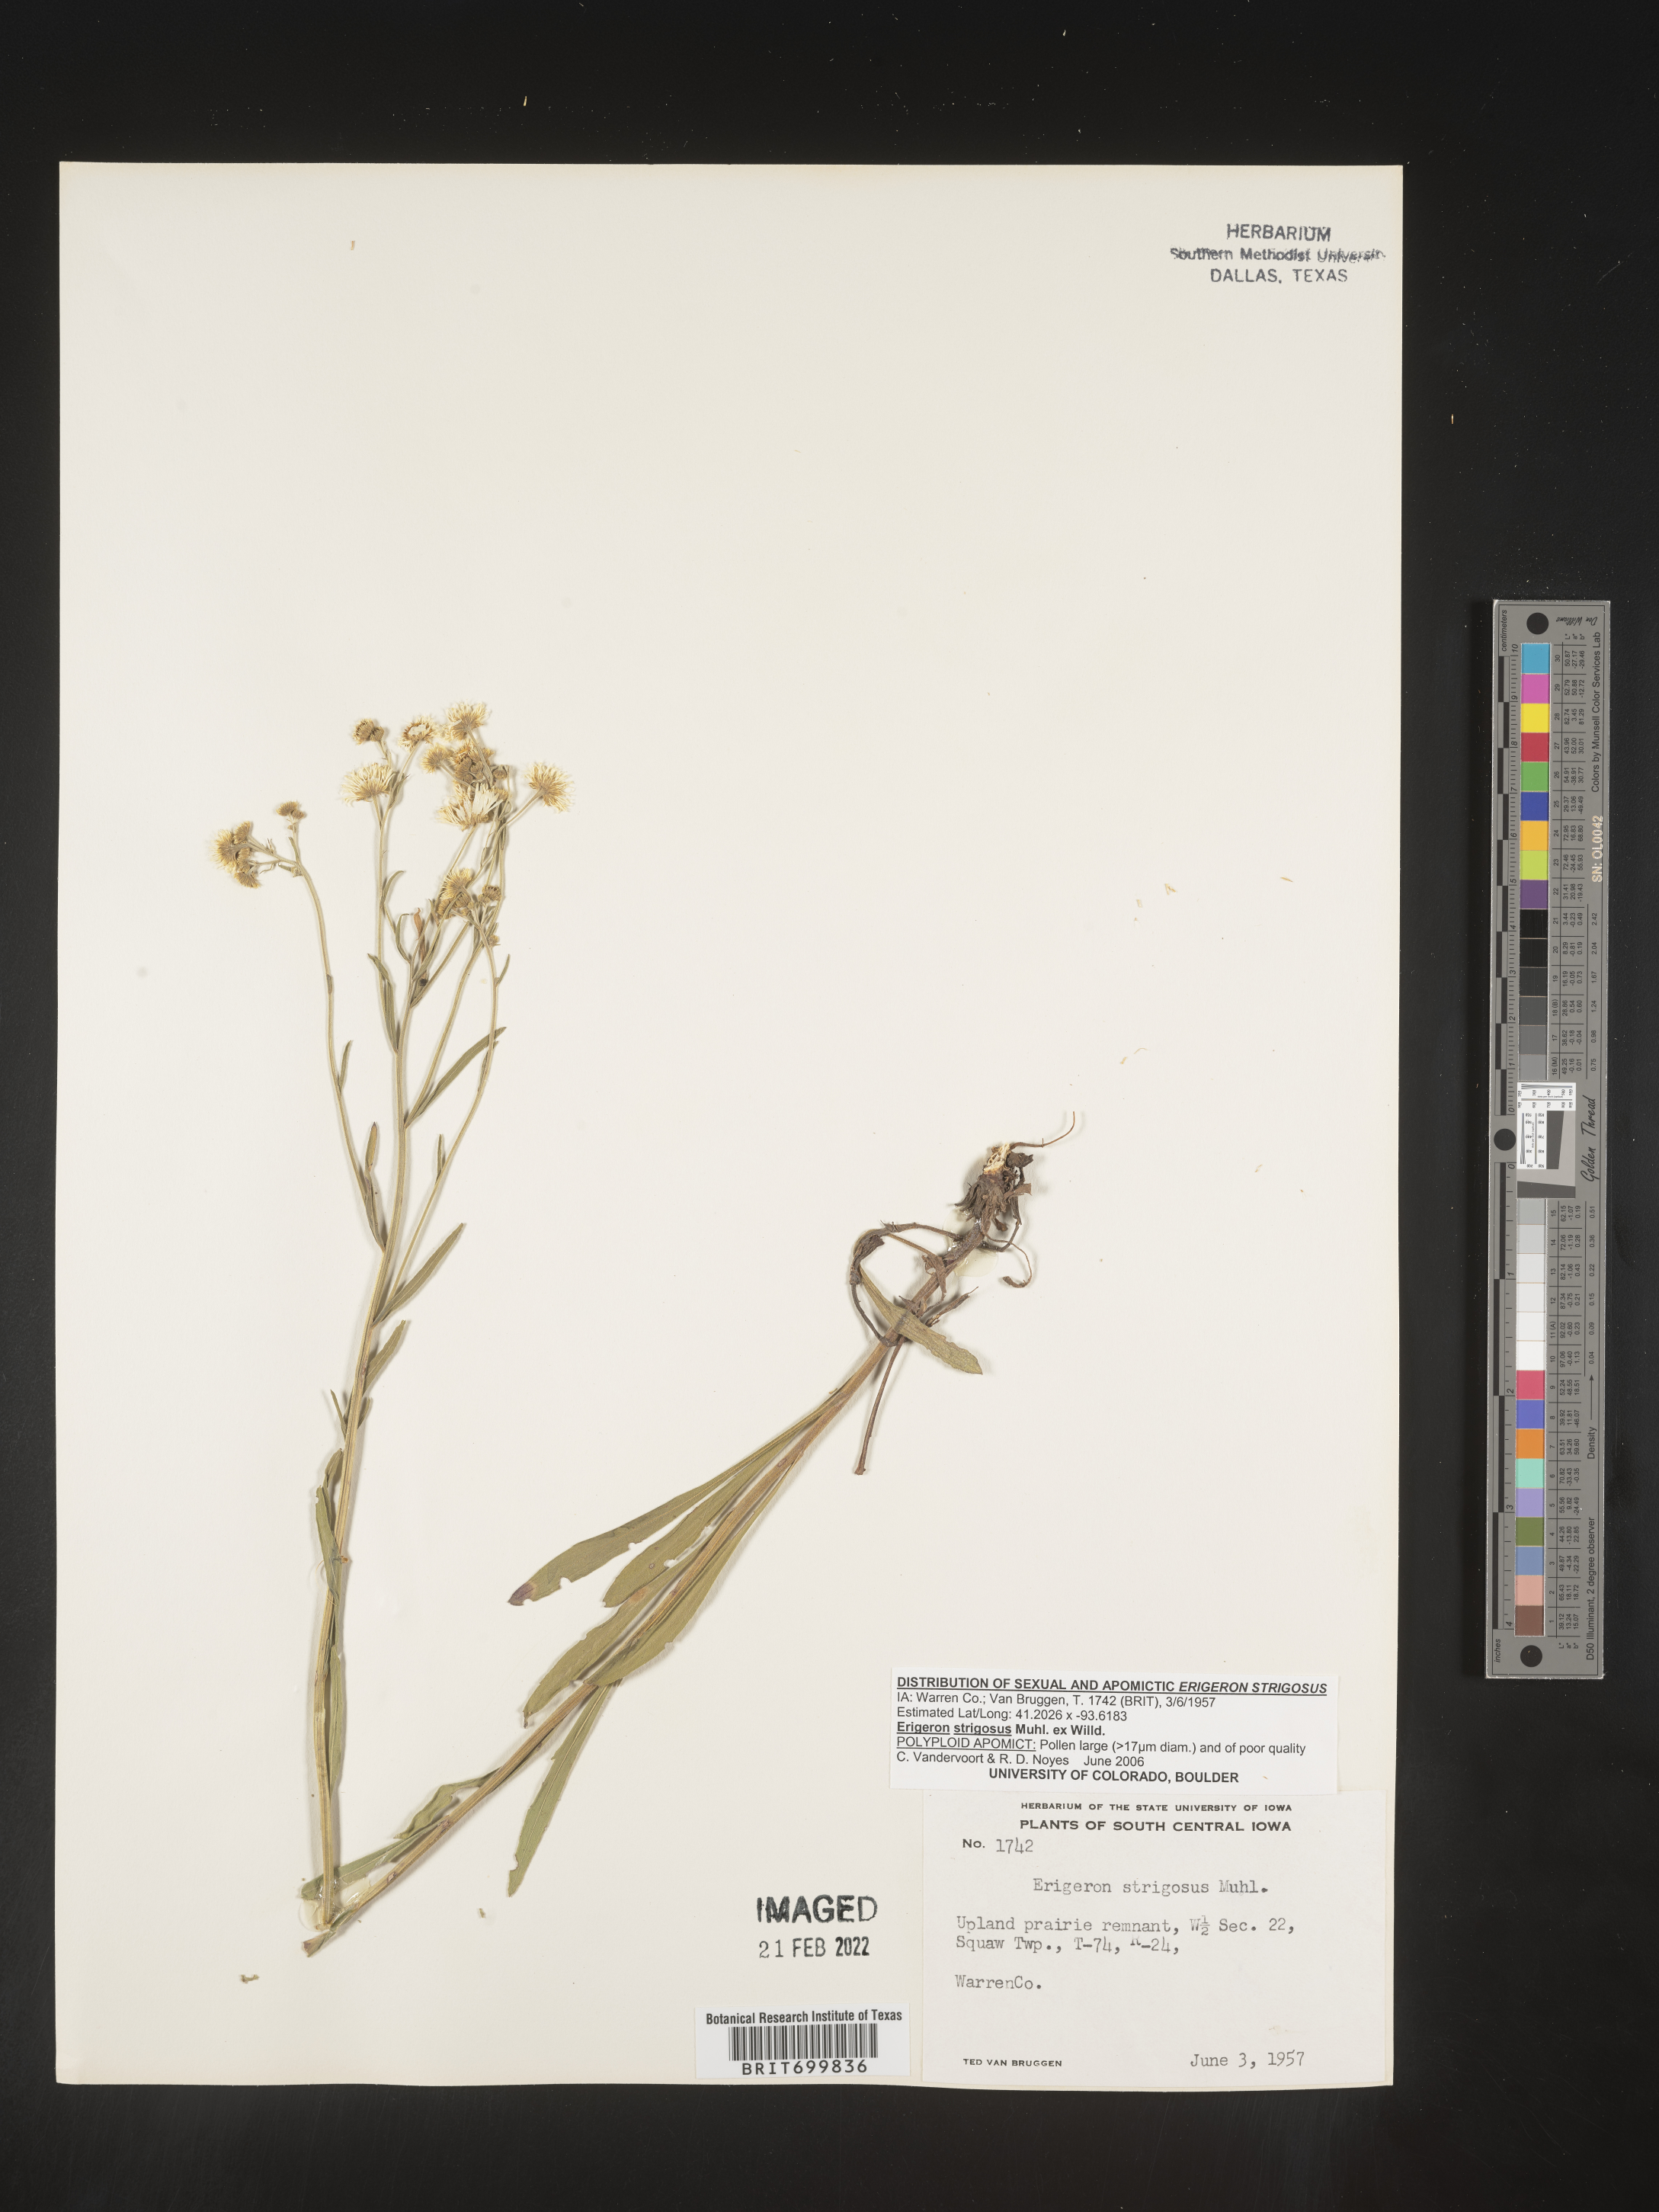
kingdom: Plantae
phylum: Tracheophyta
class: Magnoliopsida
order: Asterales
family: Asteraceae
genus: Erigeron
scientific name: Erigeron strigosus
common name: Common eastern fleabane
